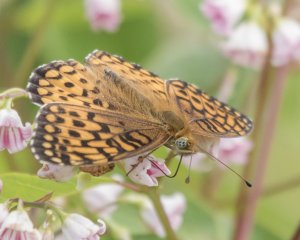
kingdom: Animalia
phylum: Arthropoda
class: Insecta
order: Lepidoptera
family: Nymphalidae
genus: Speyeria
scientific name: Speyeria atlantis
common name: Atlantis Fritillary
